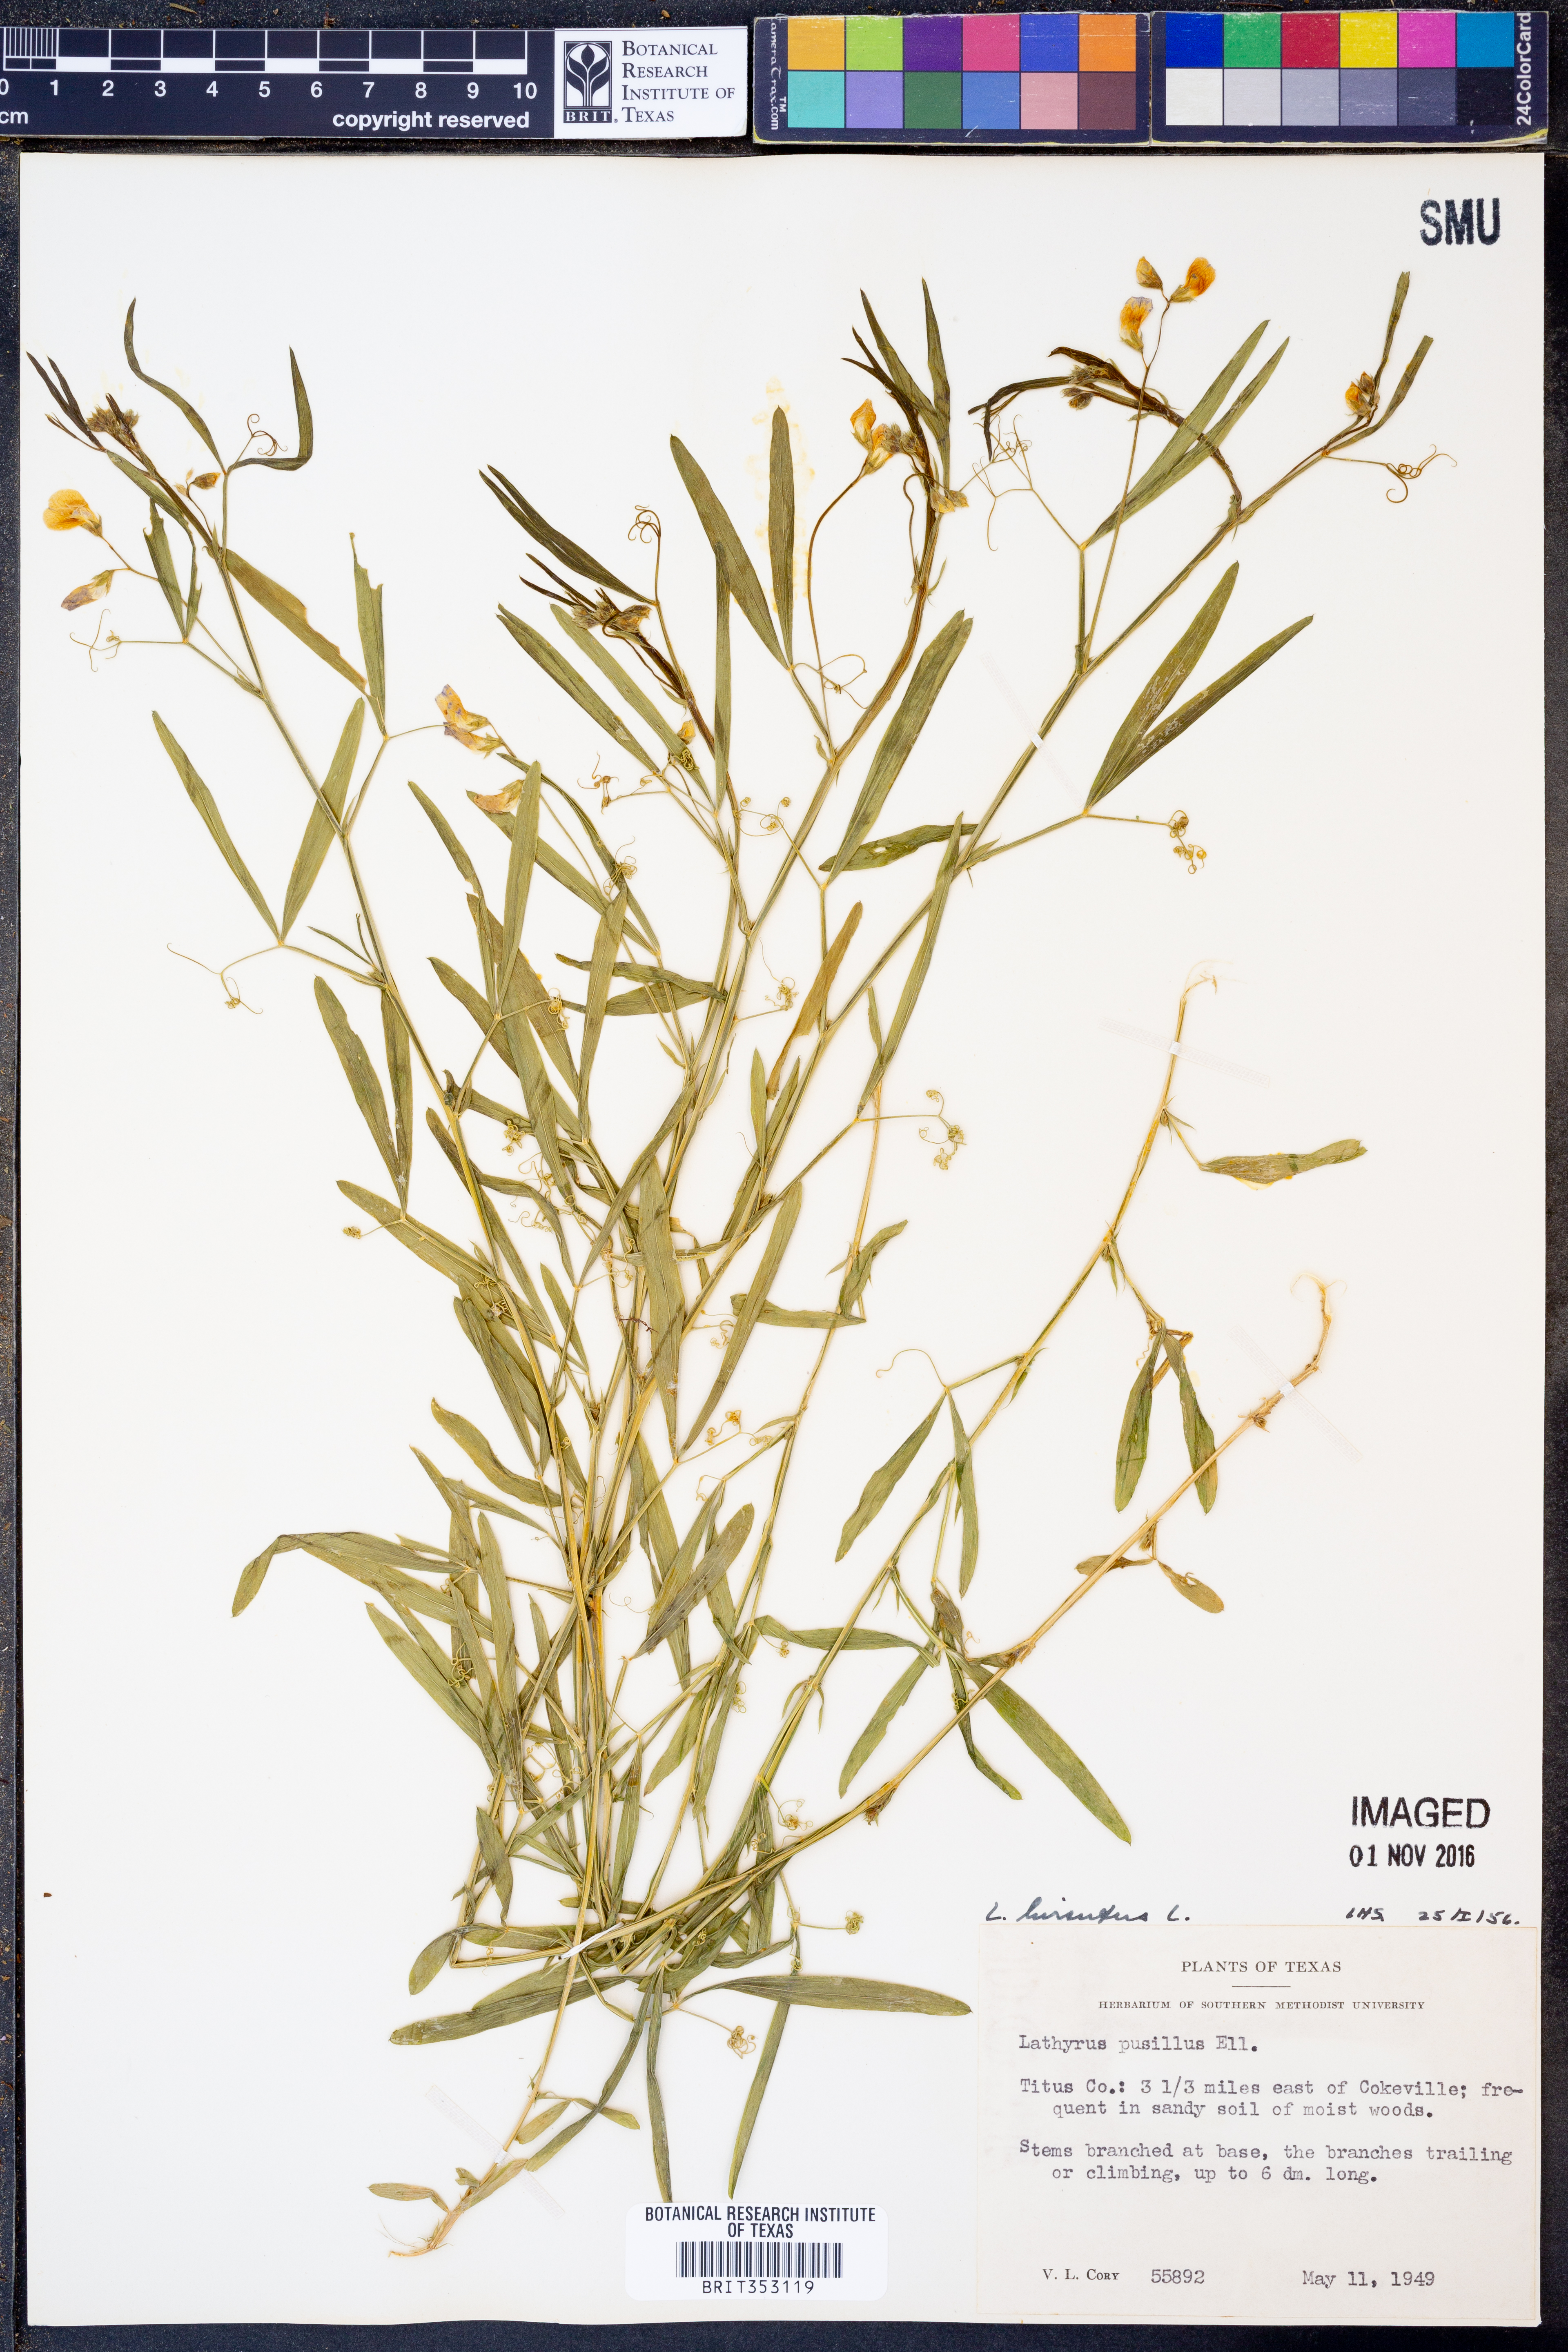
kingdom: Plantae
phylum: Tracheophyta
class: Magnoliopsida
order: Fabales
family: Fabaceae
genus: Lathyrus
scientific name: Lathyrus hirsutus
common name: Hairy vetchling
